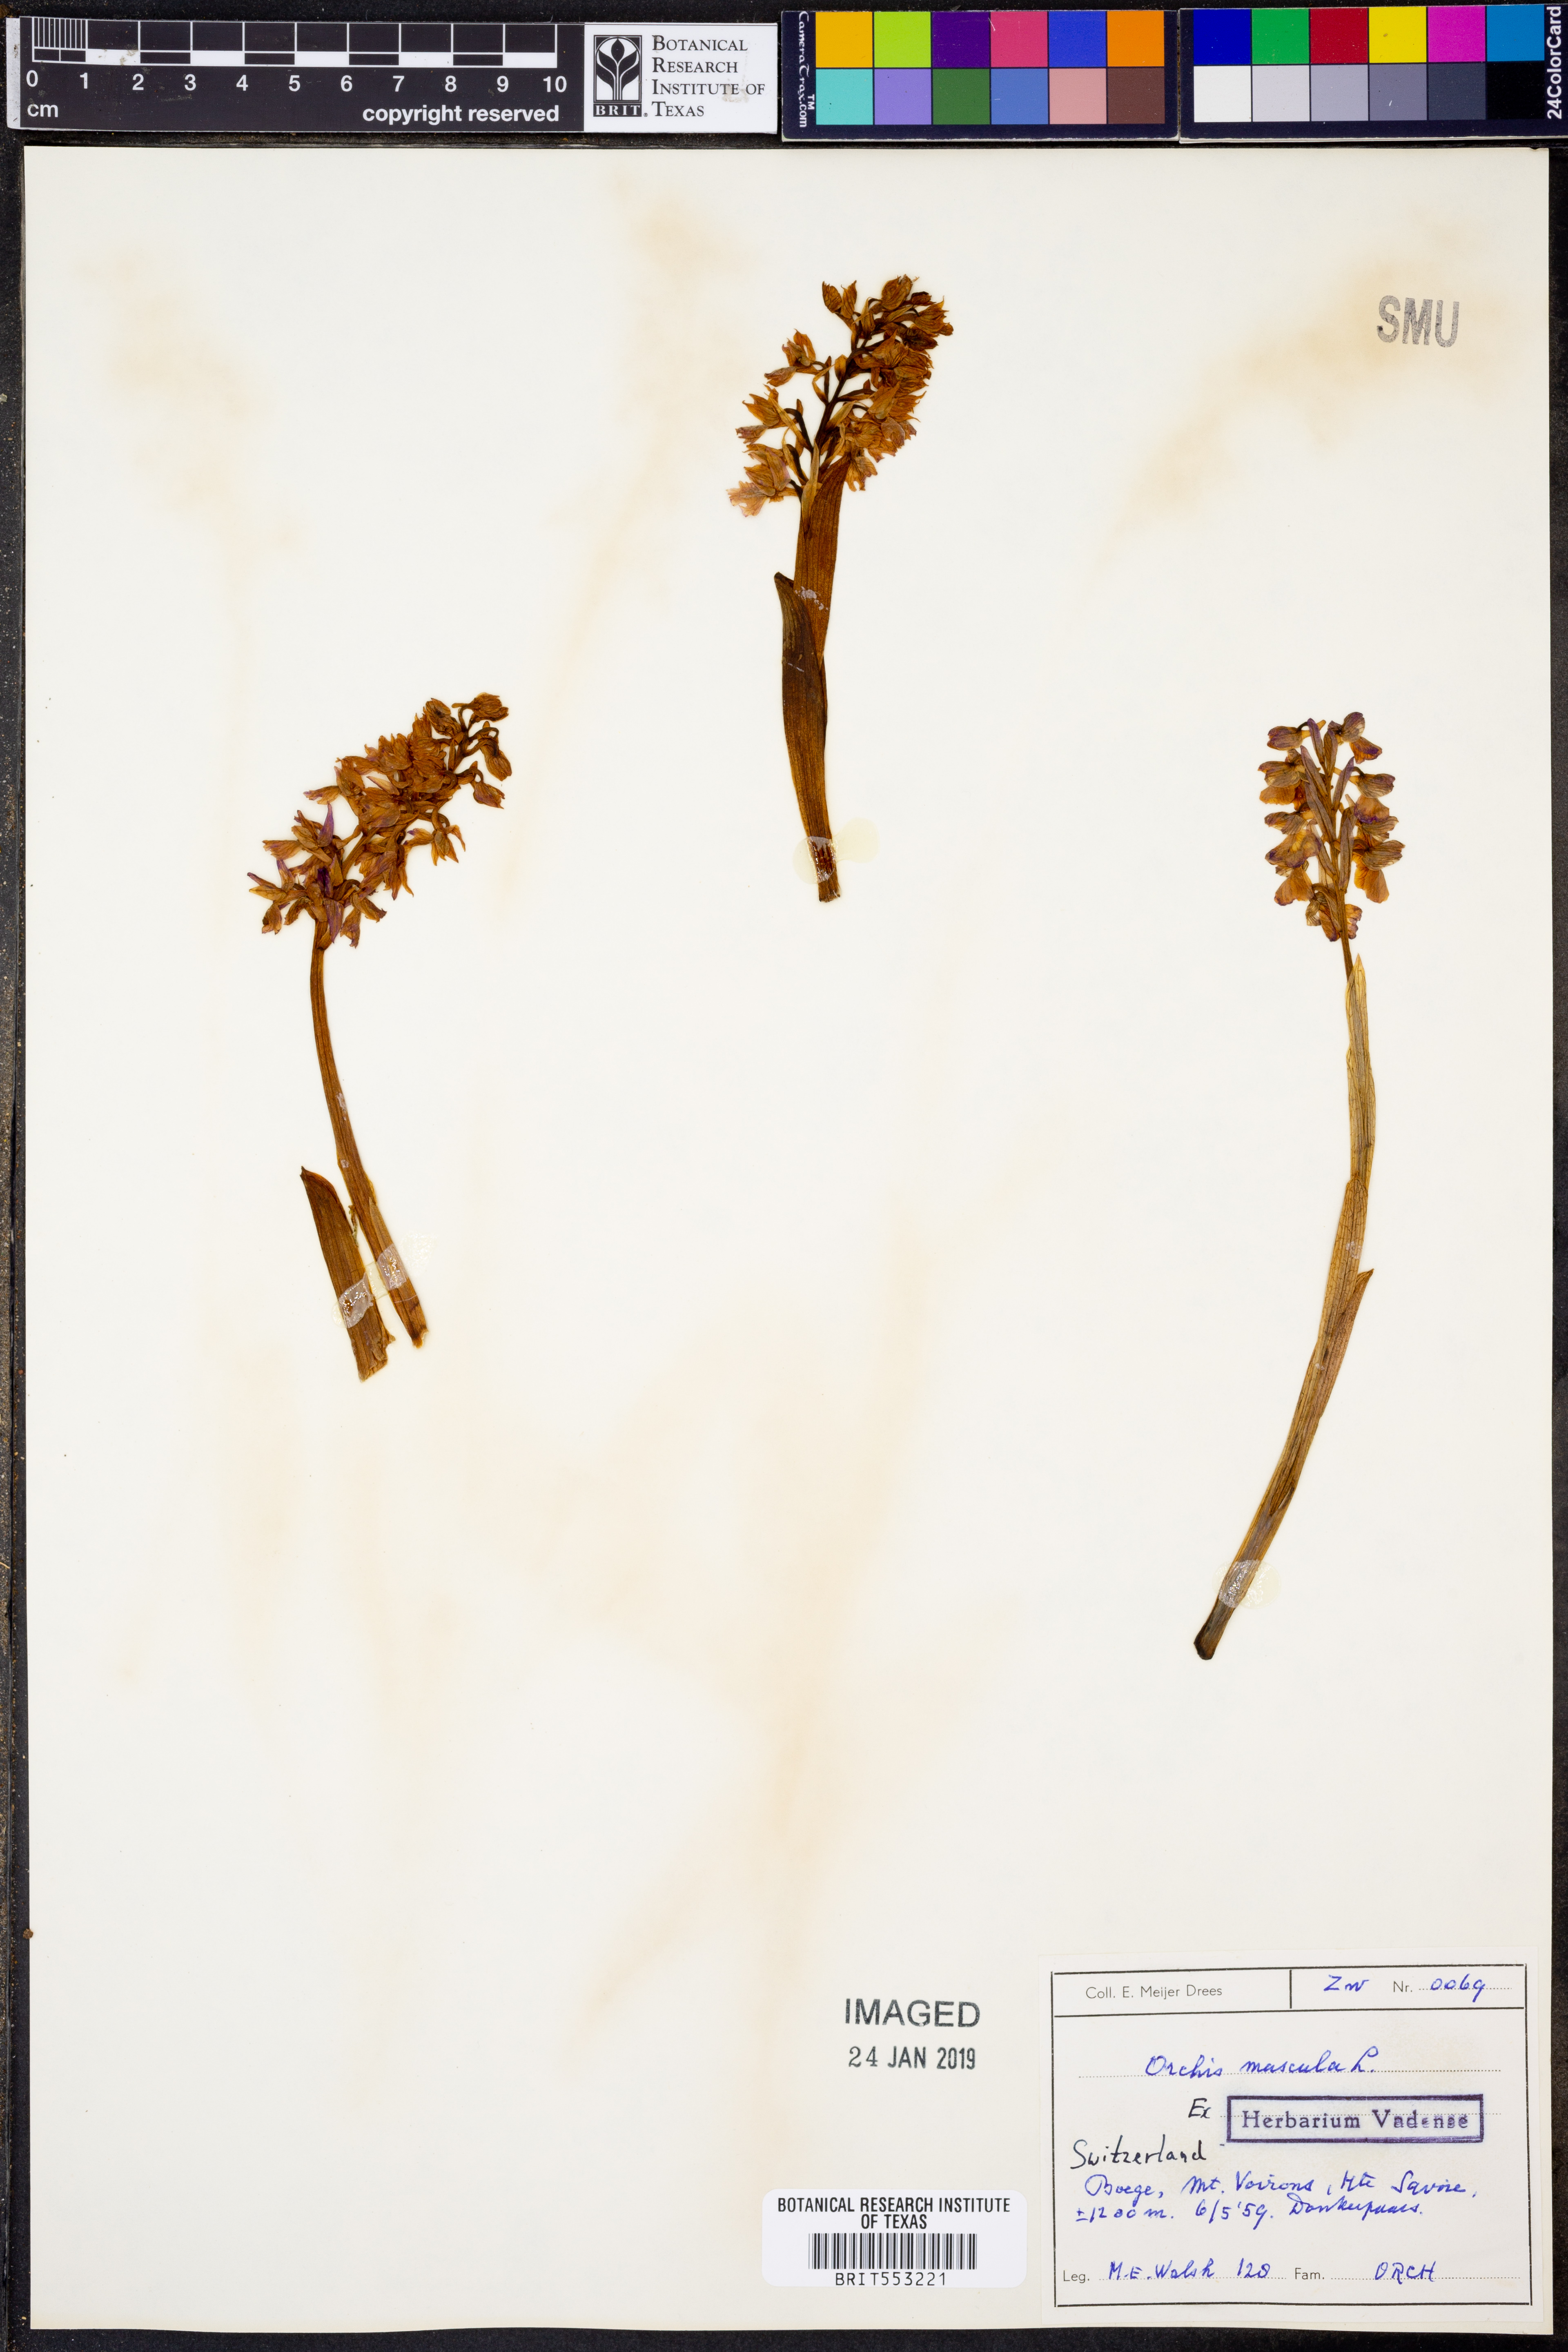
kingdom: Plantae
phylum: Tracheophyta
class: Liliopsida
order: Asparagales
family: Orchidaceae
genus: Orchis
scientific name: Orchis mascula
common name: Early-purple orchid
